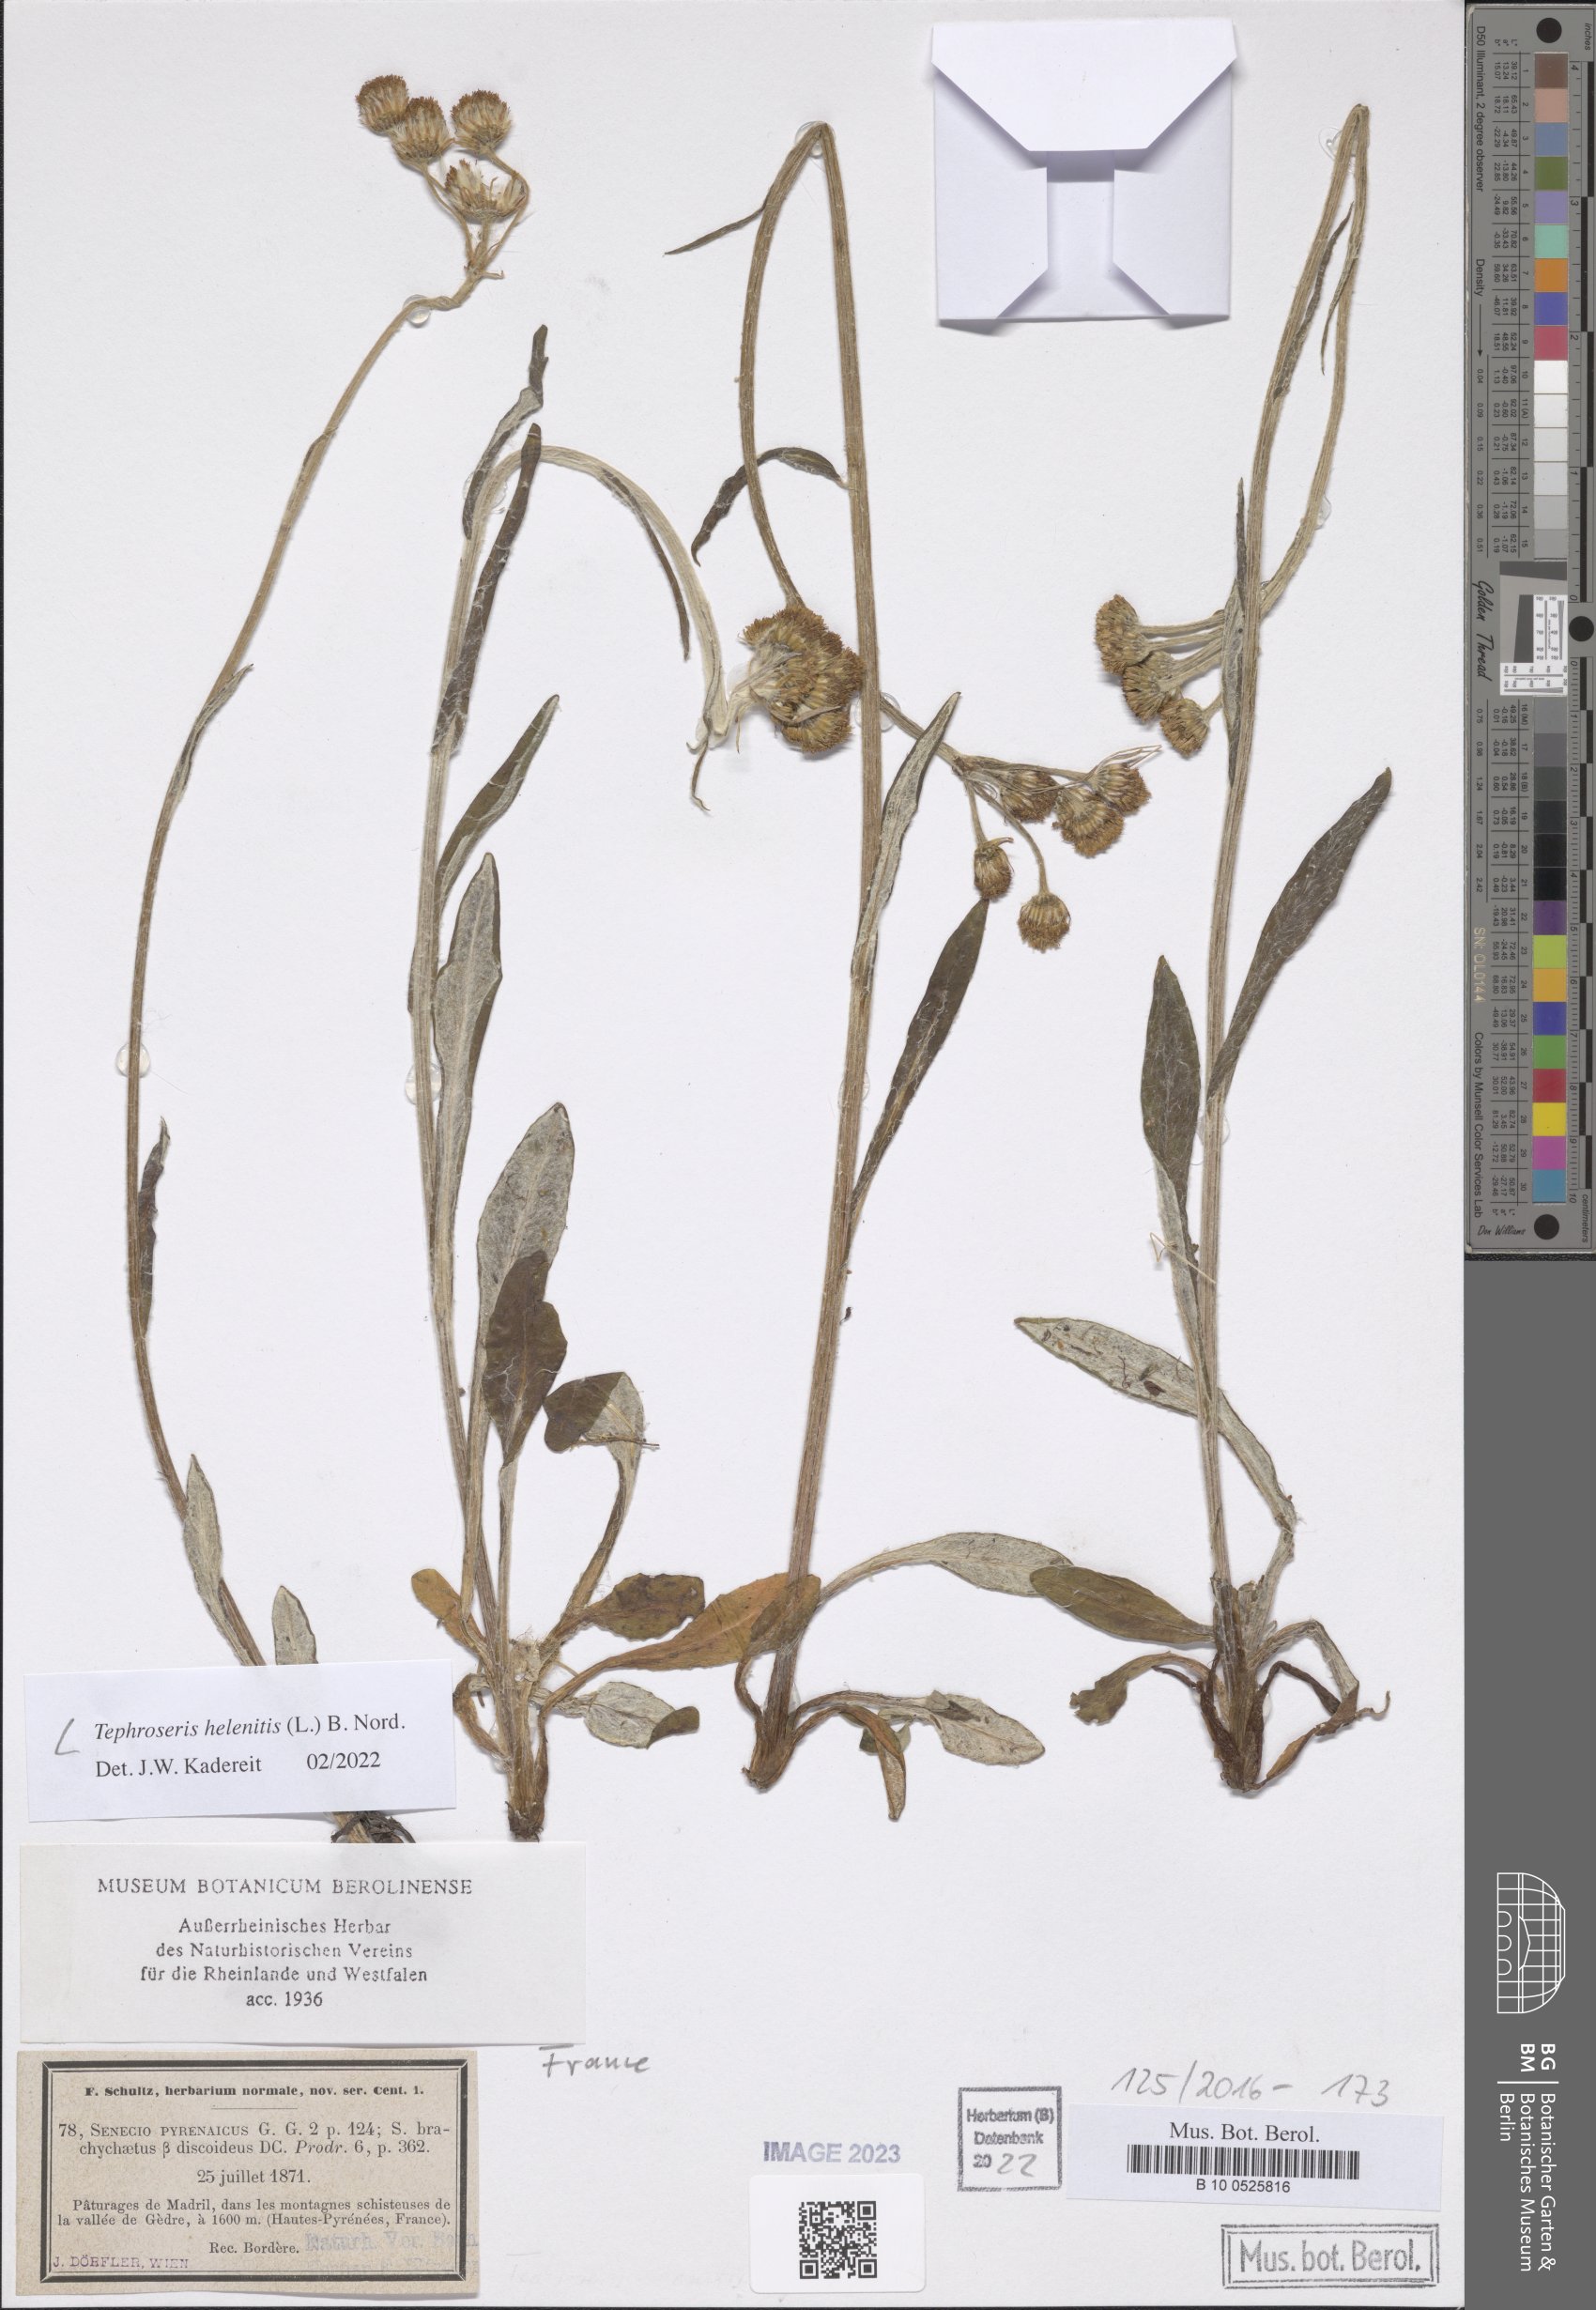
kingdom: Plantae
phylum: Tracheophyta
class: Magnoliopsida
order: Asterales
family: Asteraceae
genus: Tephroseris
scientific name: Tephroseris helenitis
